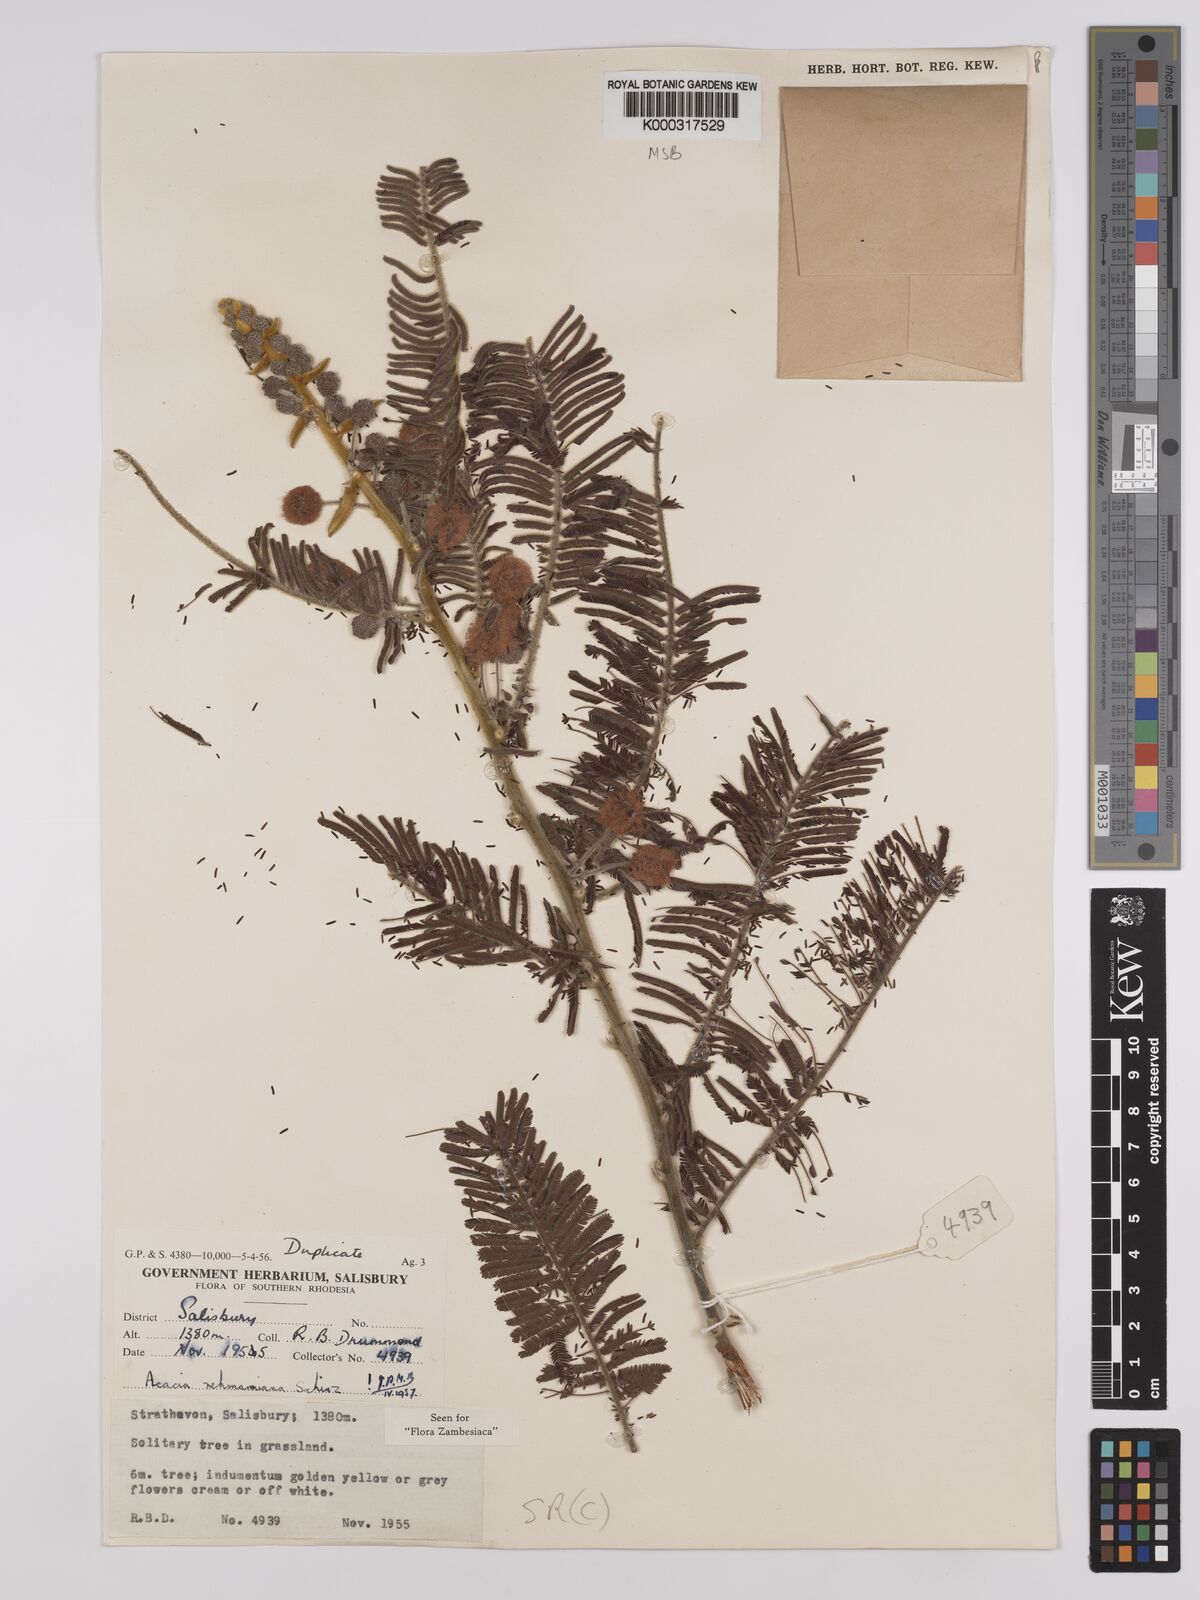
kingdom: Plantae
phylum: Tracheophyta
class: Magnoliopsida
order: Fabales
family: Fabaceae
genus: Vachellia
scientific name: Vachellia rehmanniana
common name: Silky thorn
